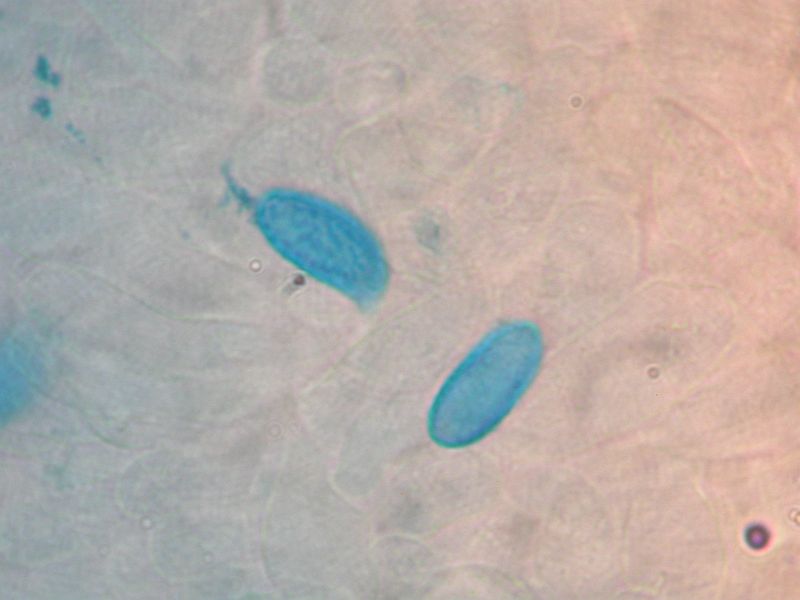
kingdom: Fungi
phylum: Basidiomycota
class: Agaricomycetes
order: Gomphales
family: Gomphaceae
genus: Ramaria
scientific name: Ramaria
